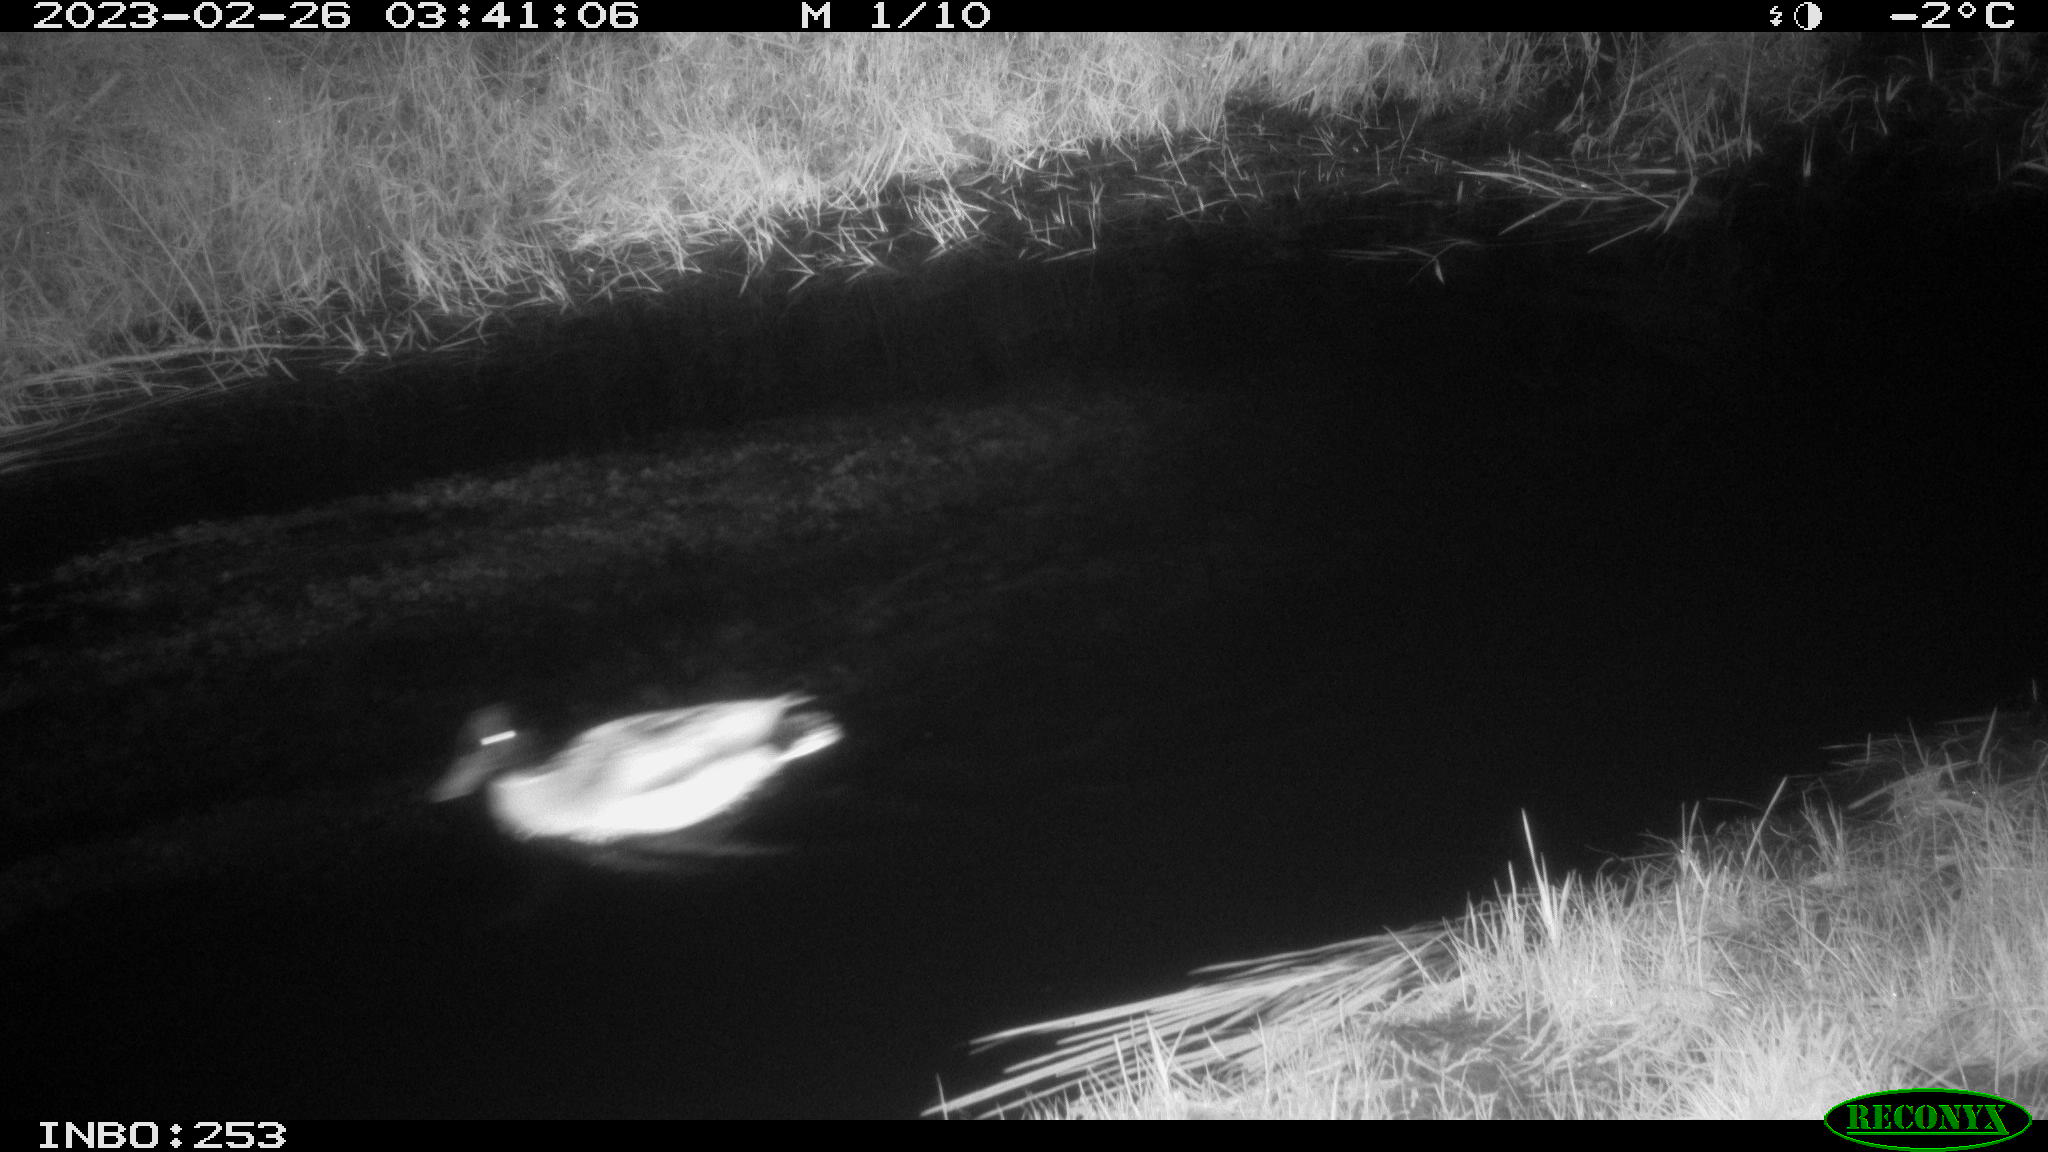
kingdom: Animalia
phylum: Chordata
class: Aves
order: Anseriformes
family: Anatidae
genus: Anas
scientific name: Anas
